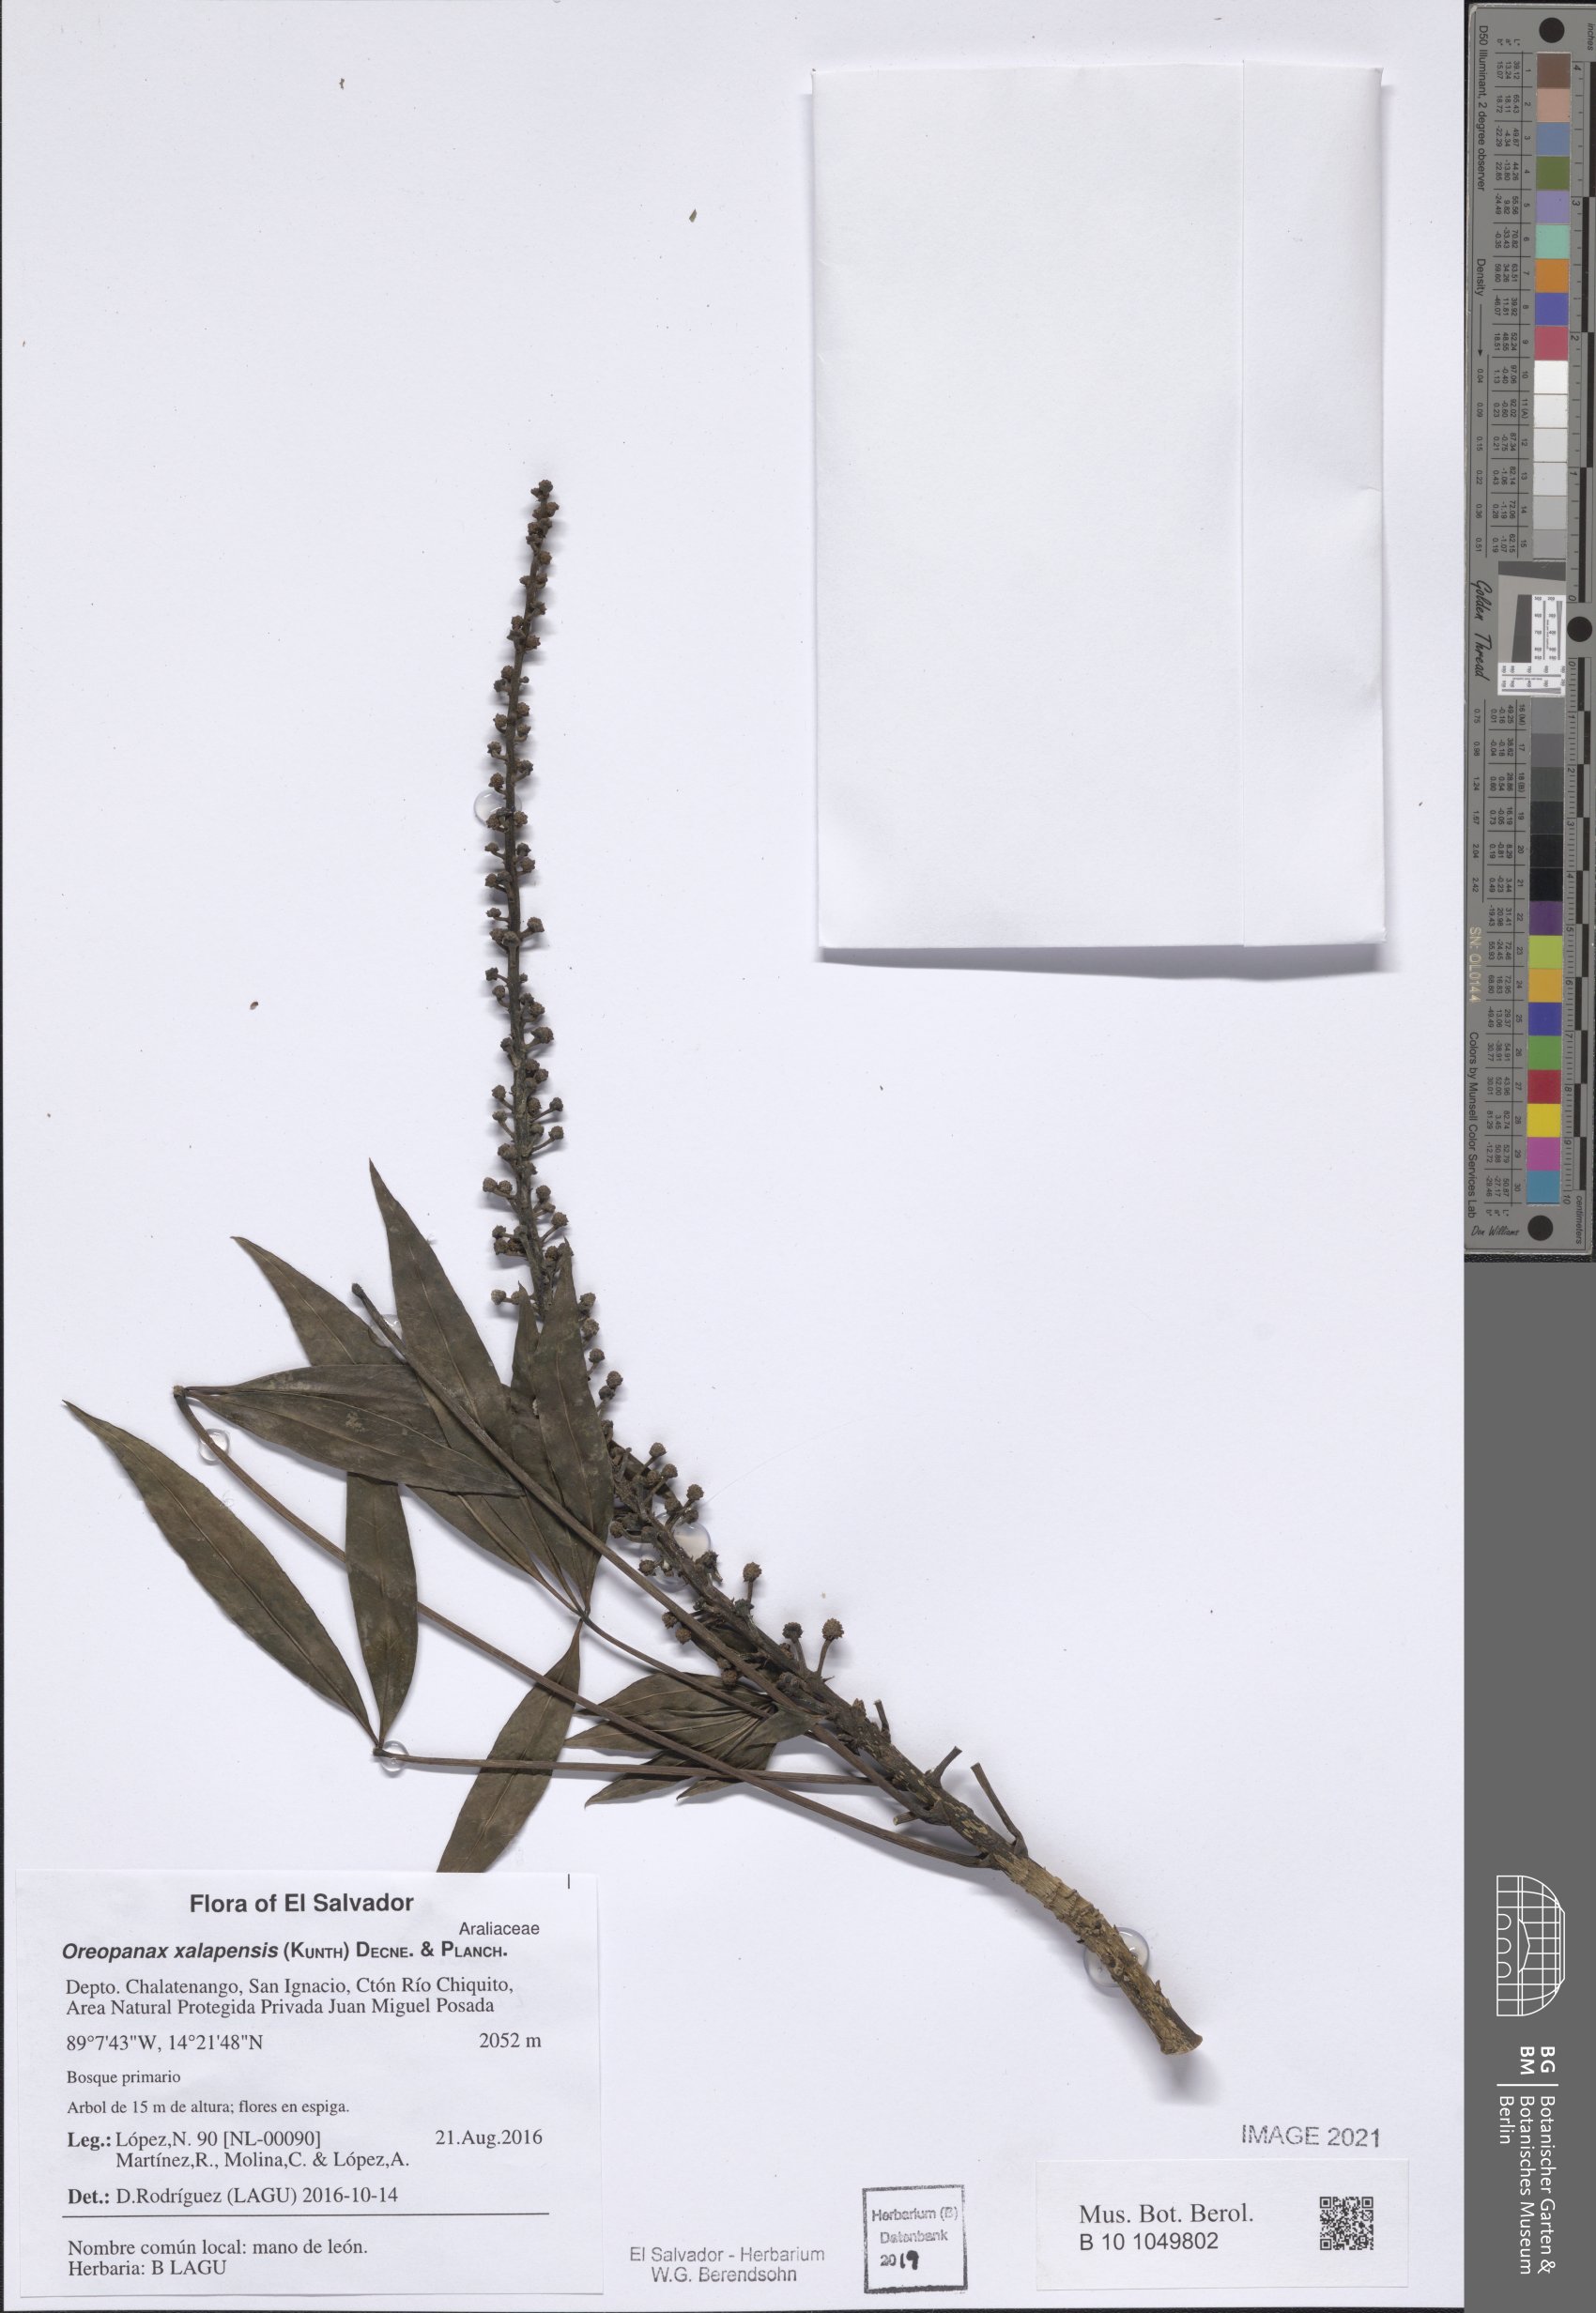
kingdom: Plantae
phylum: Tracheophyta
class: Magnoliopsida
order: Apiales
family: Araliaceae
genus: Oreopanax
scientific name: Oreopanax xalapensis
